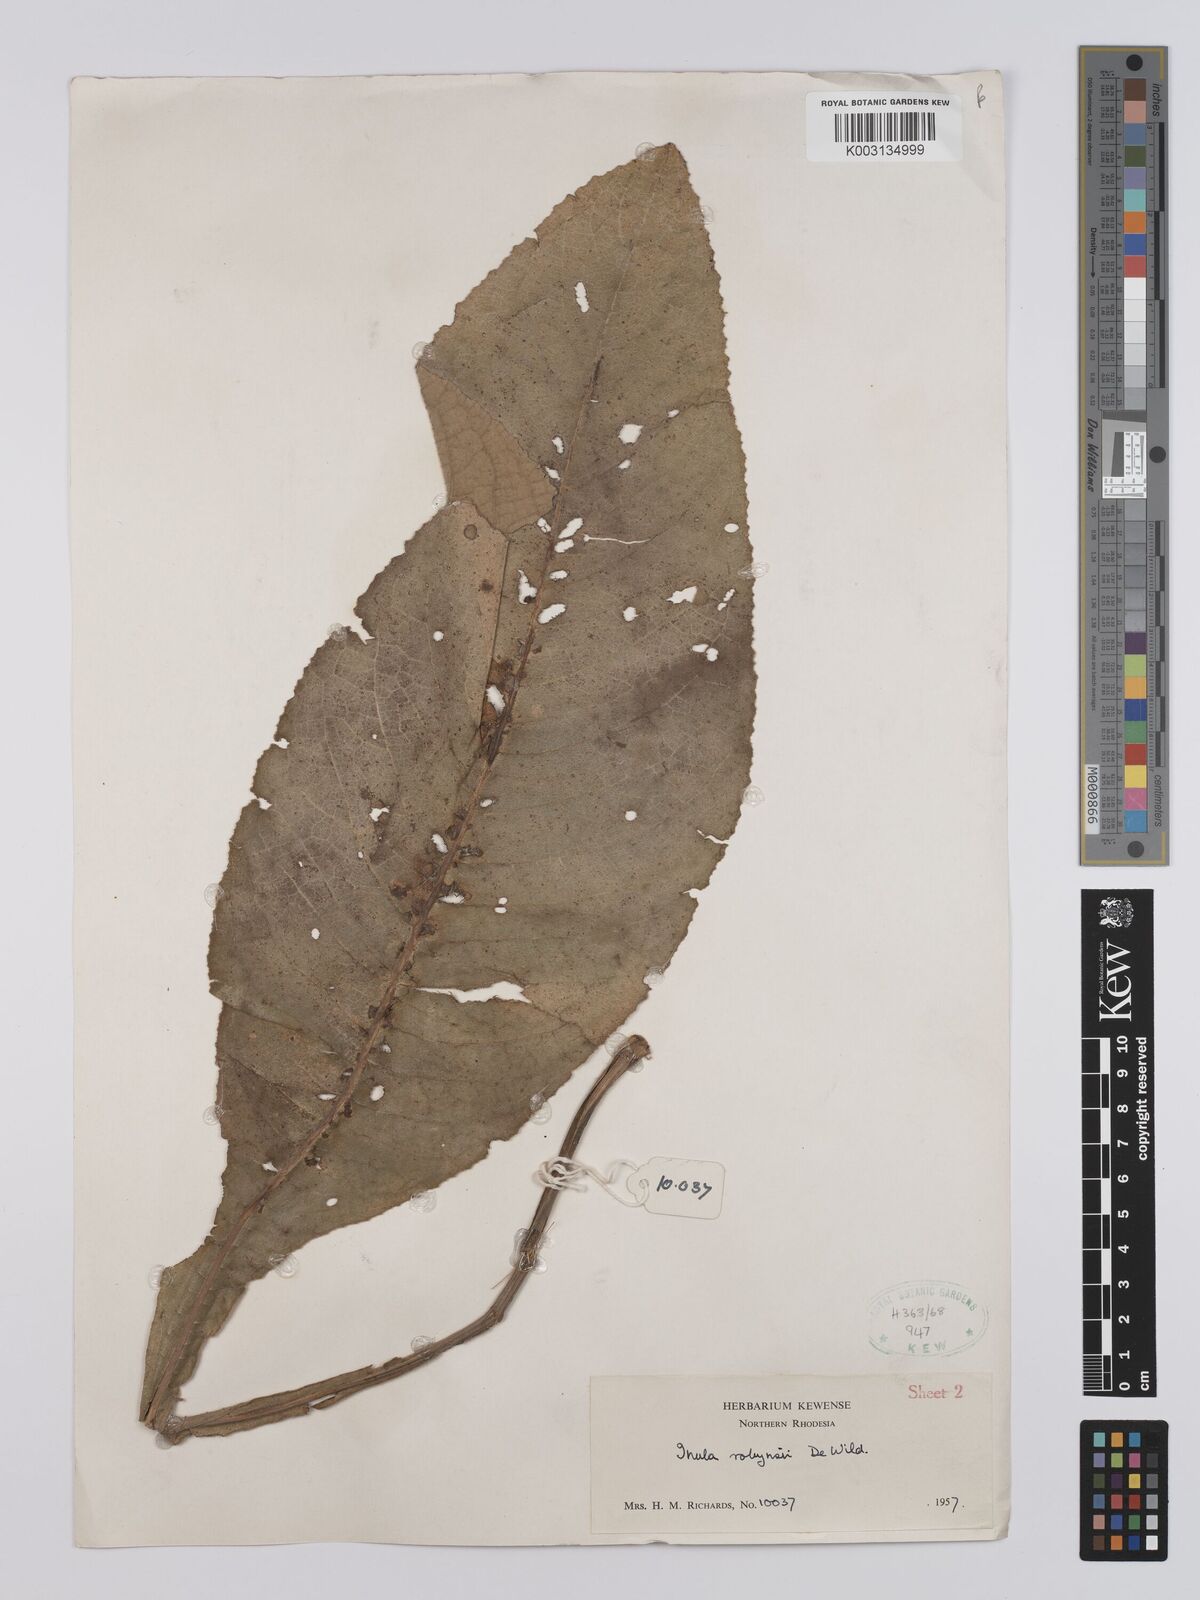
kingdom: Plantae
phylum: Tracheophyta
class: Magnoliopsida
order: Asterales
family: Asteraceae
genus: Inula
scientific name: Inula robynsii
